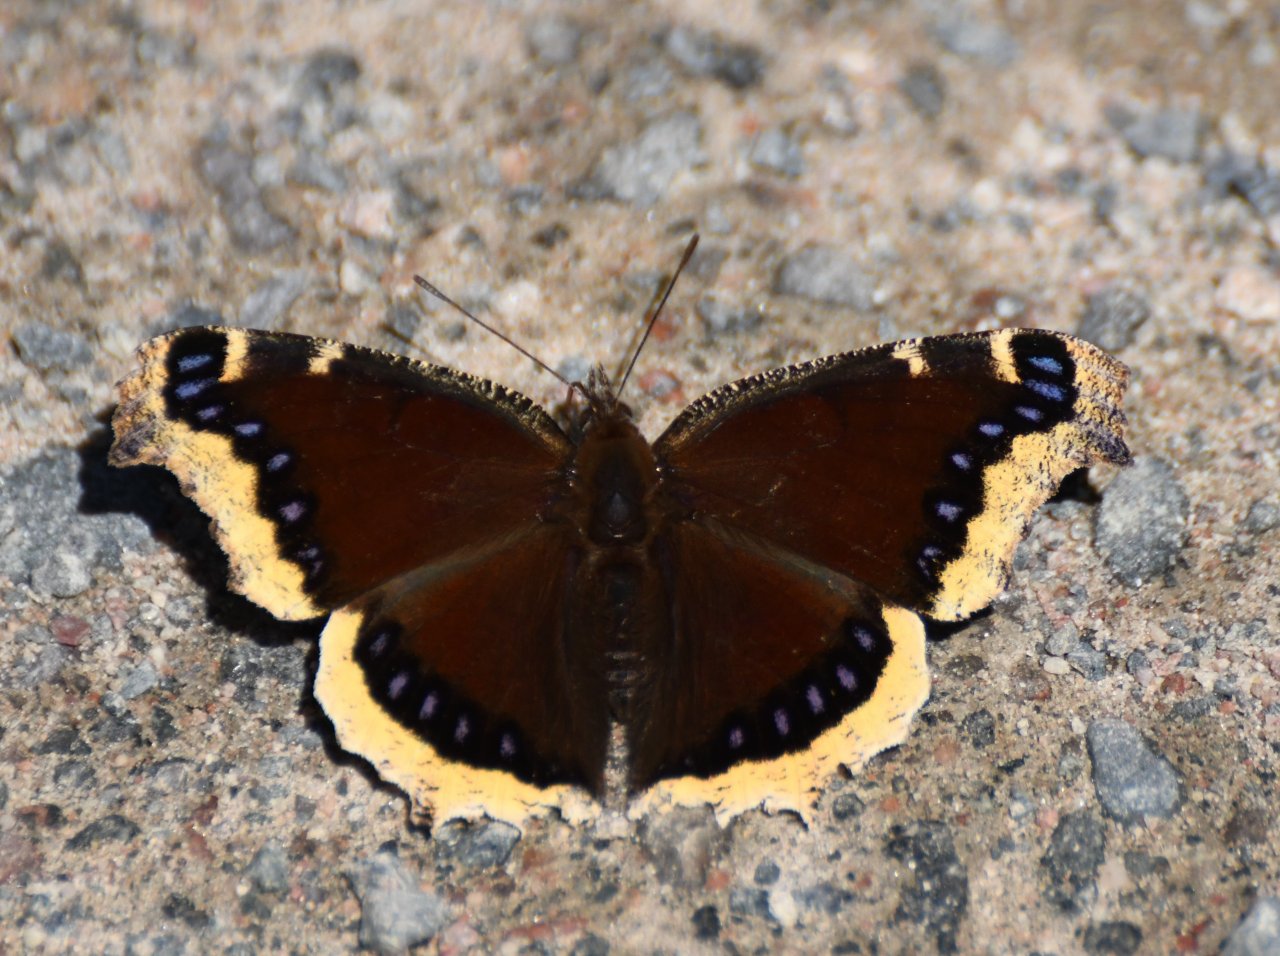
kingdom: Animalia
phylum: Arthropoda
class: Insecta
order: Lepidoptera
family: Nymphalidae
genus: Nymphalis
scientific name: Nymphalis antiopa
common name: Mourning Cloak
